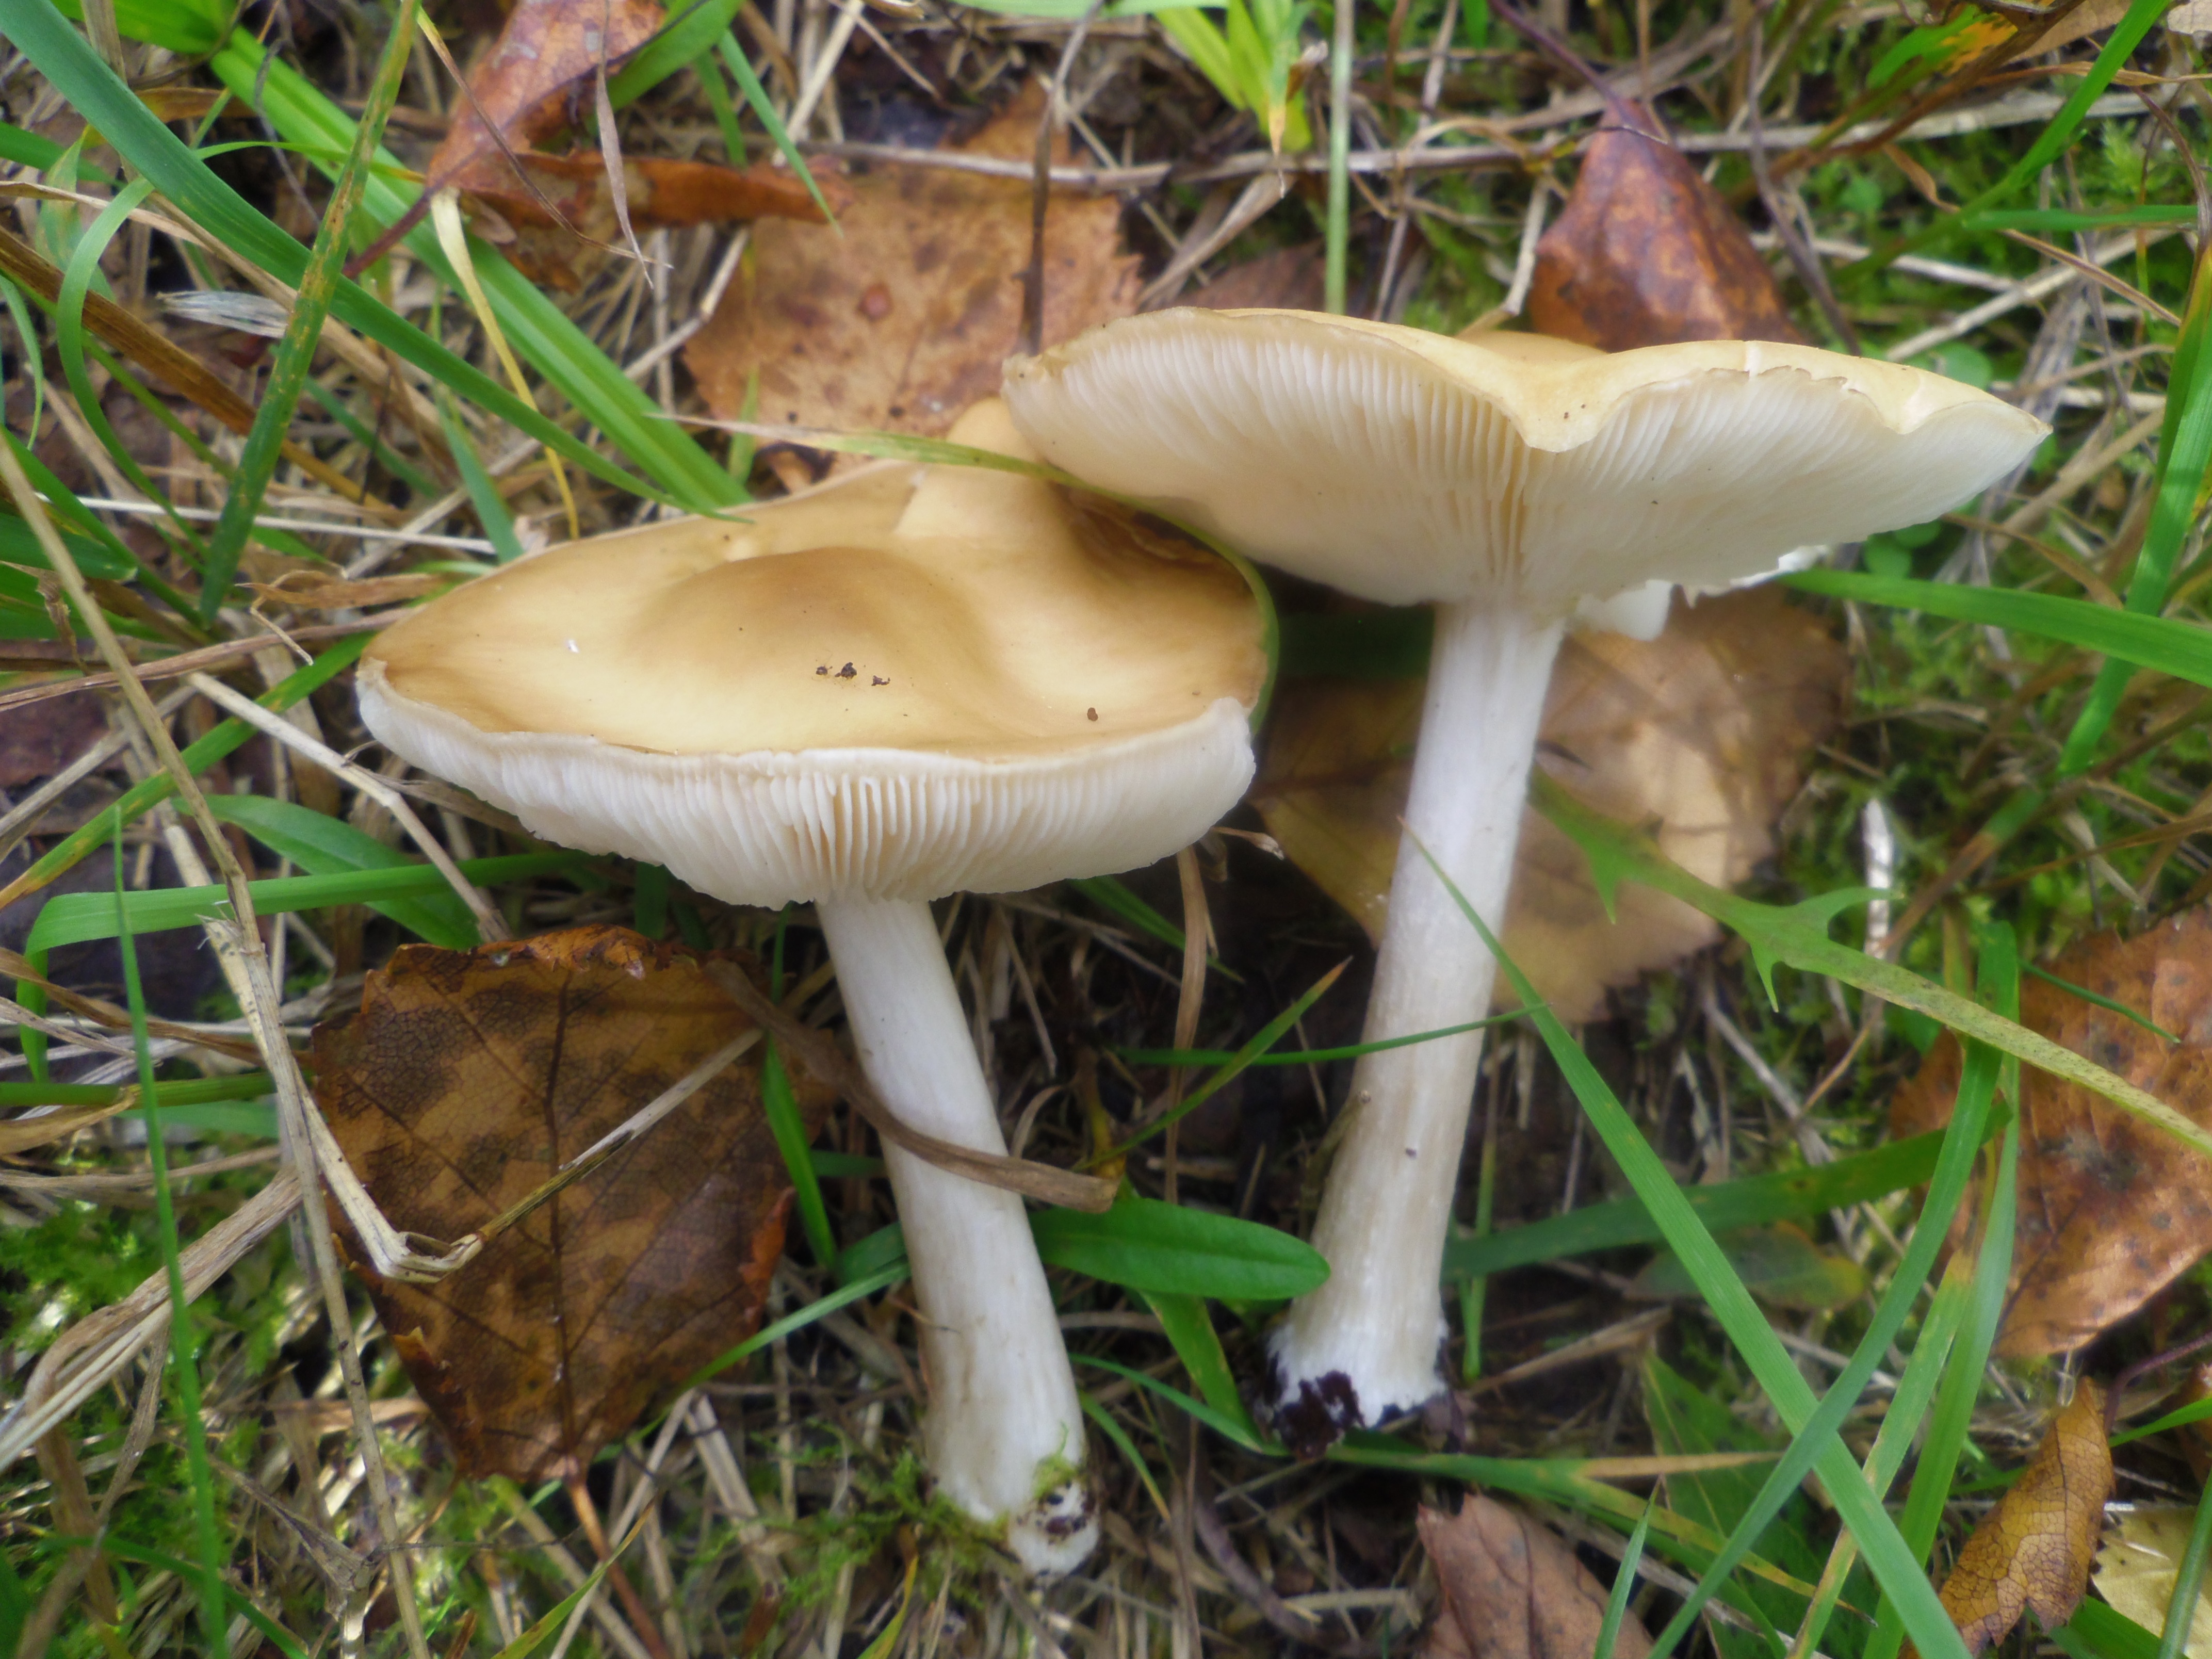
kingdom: Fungi
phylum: Basidiomycota
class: Agaricomycetes
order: Agaricales
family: Tricholomataceae
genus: Melanoleuca
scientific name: Melanoleuca cognata
